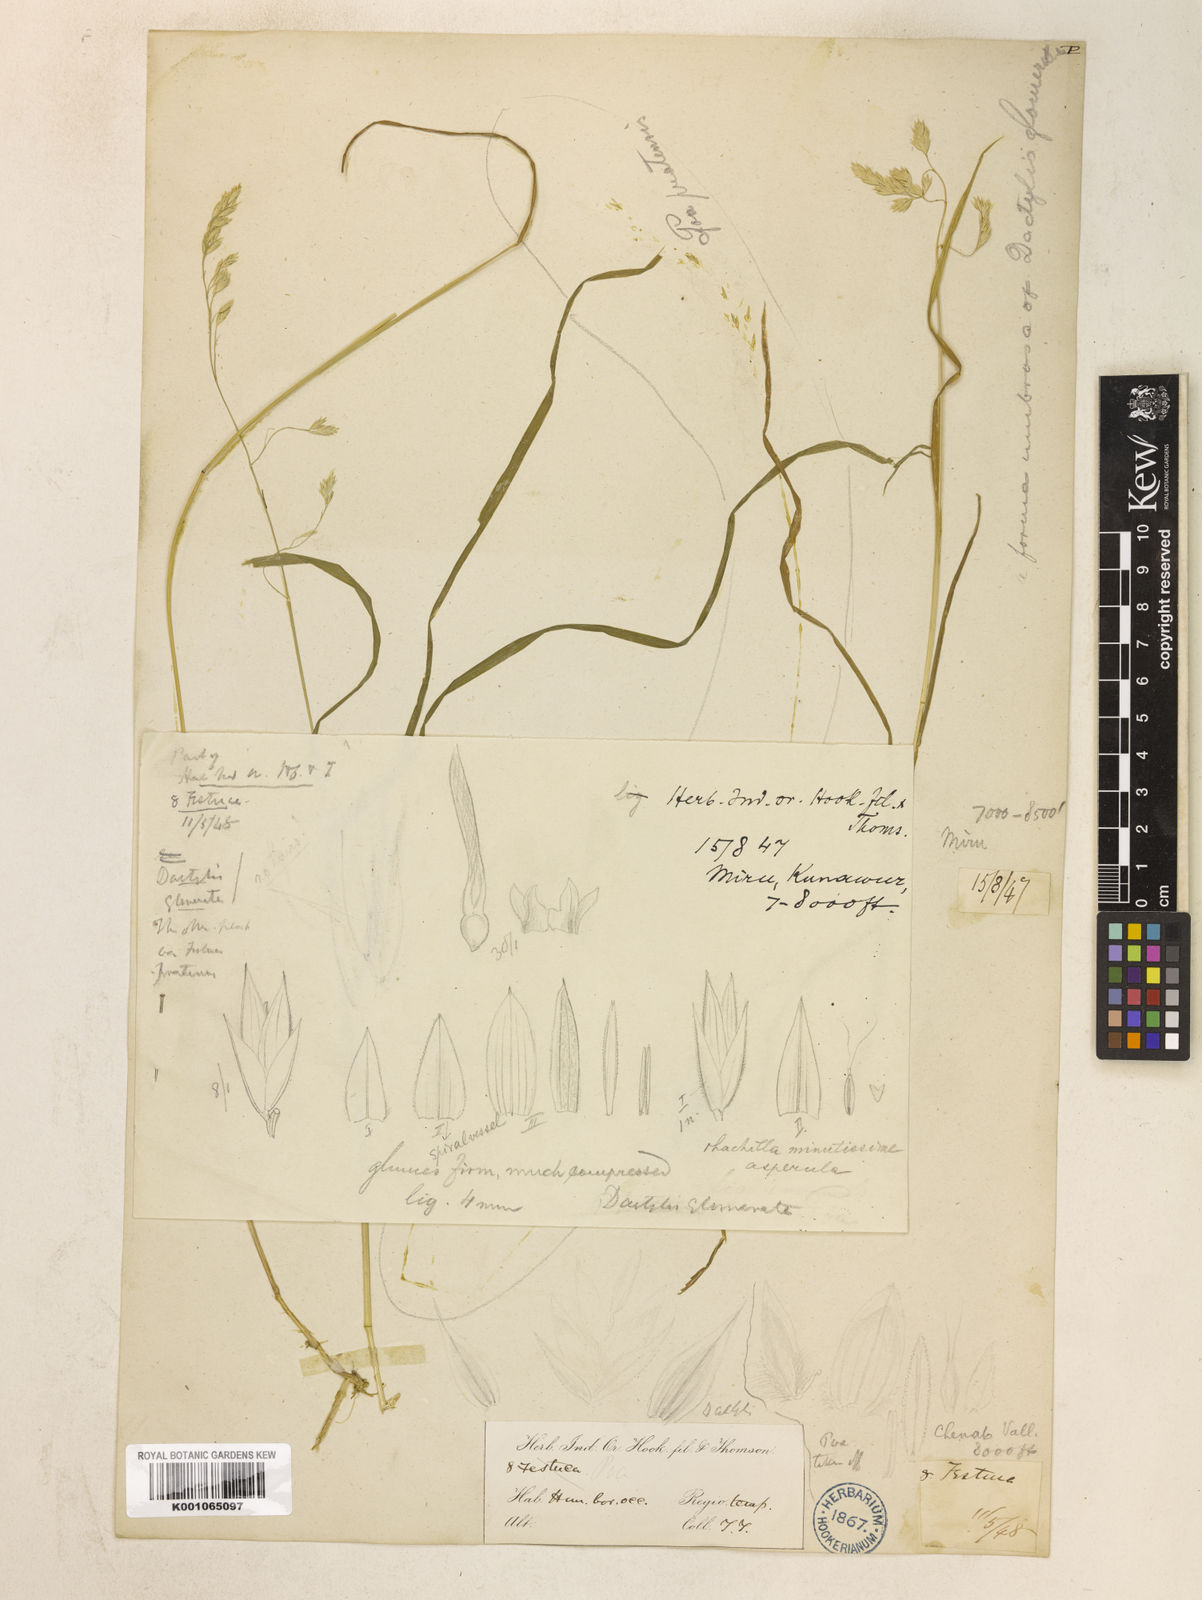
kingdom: Plantae
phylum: Tracheophyta
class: Liliopsida
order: Poales
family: Poaceae
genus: Dactylis
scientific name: Dactylis glomerata
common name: Orchardgrass
